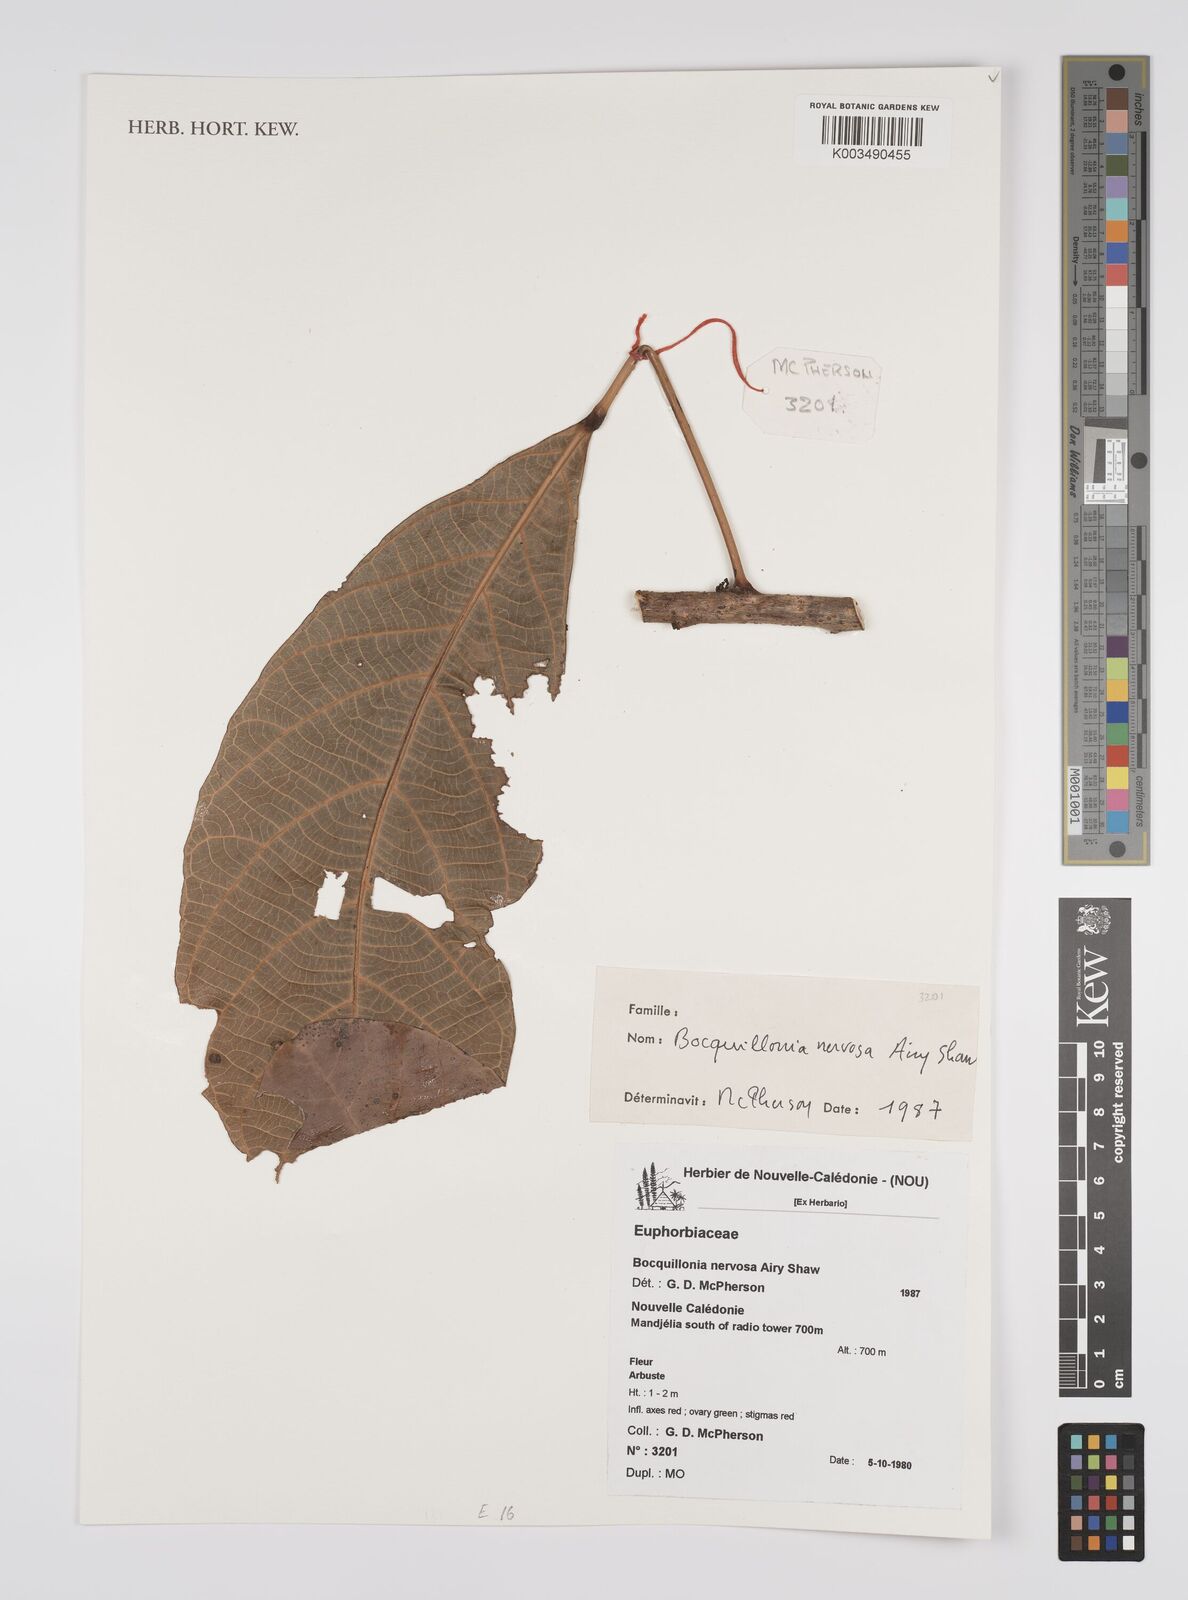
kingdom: Plantae
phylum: Tracheophyta
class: Magnoliopsida
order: Malpighiales
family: Euphorbiaceae
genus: Bocquillonia
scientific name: Bocquillonia nervosa
